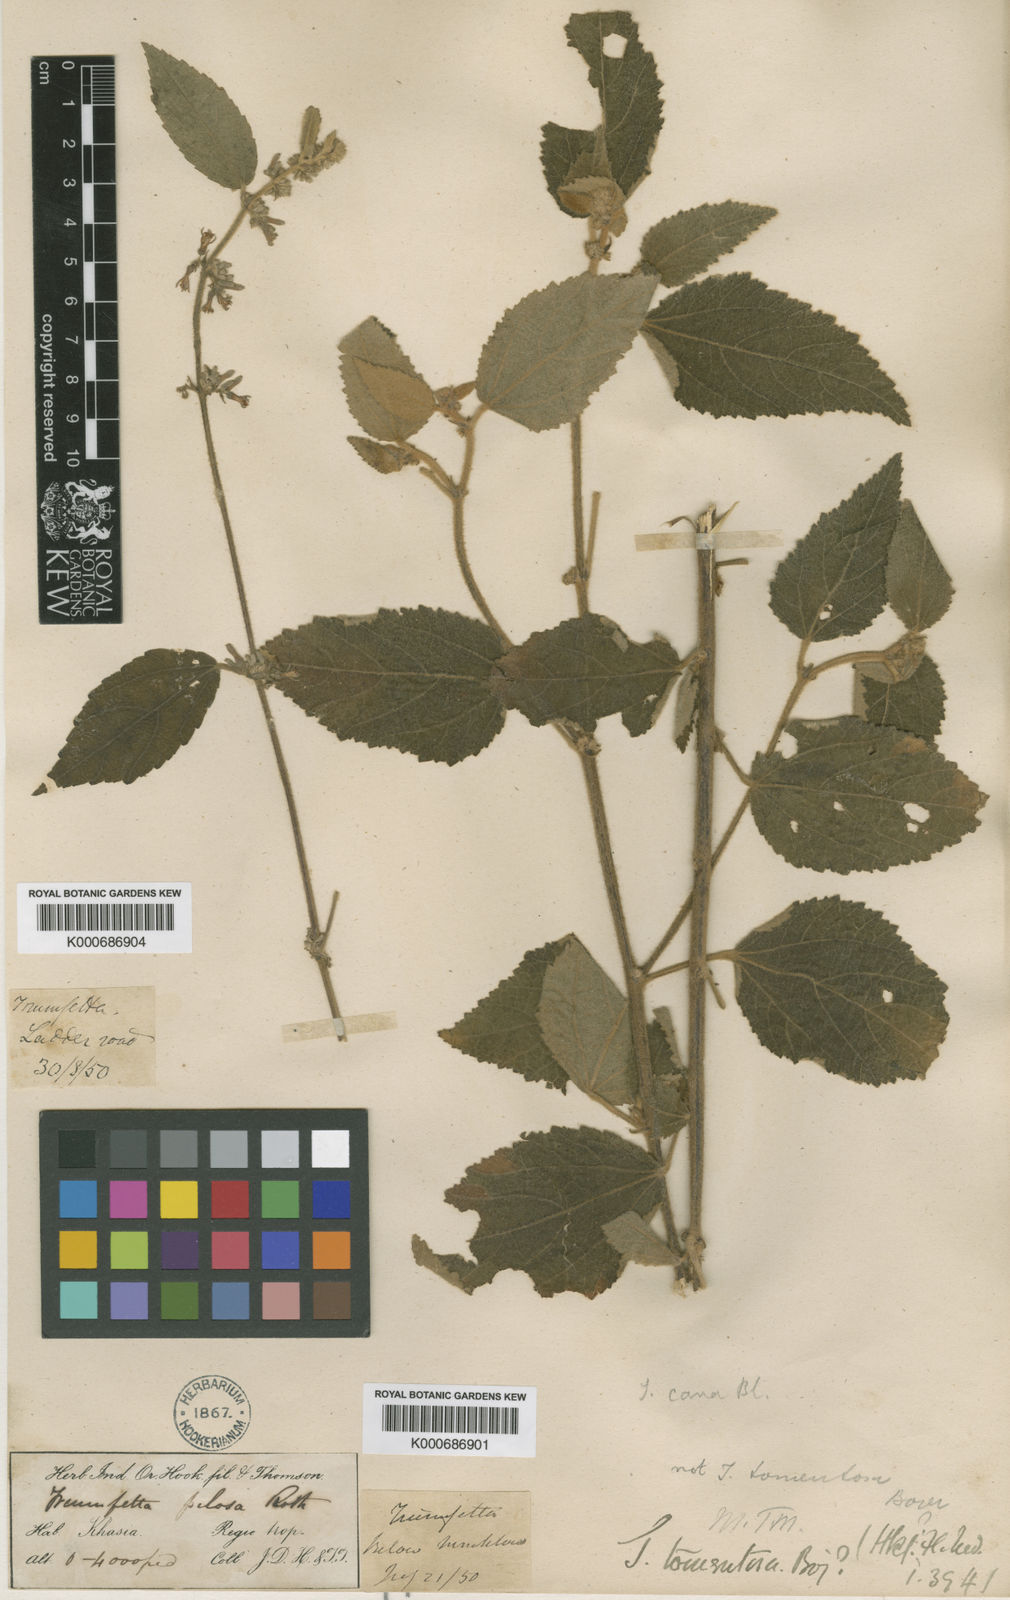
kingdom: Plantae
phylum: Tracheophyta
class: Magnoliopsida
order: Malvales
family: Malvaceae
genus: Triumfetta
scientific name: Triumfetta obliqua
